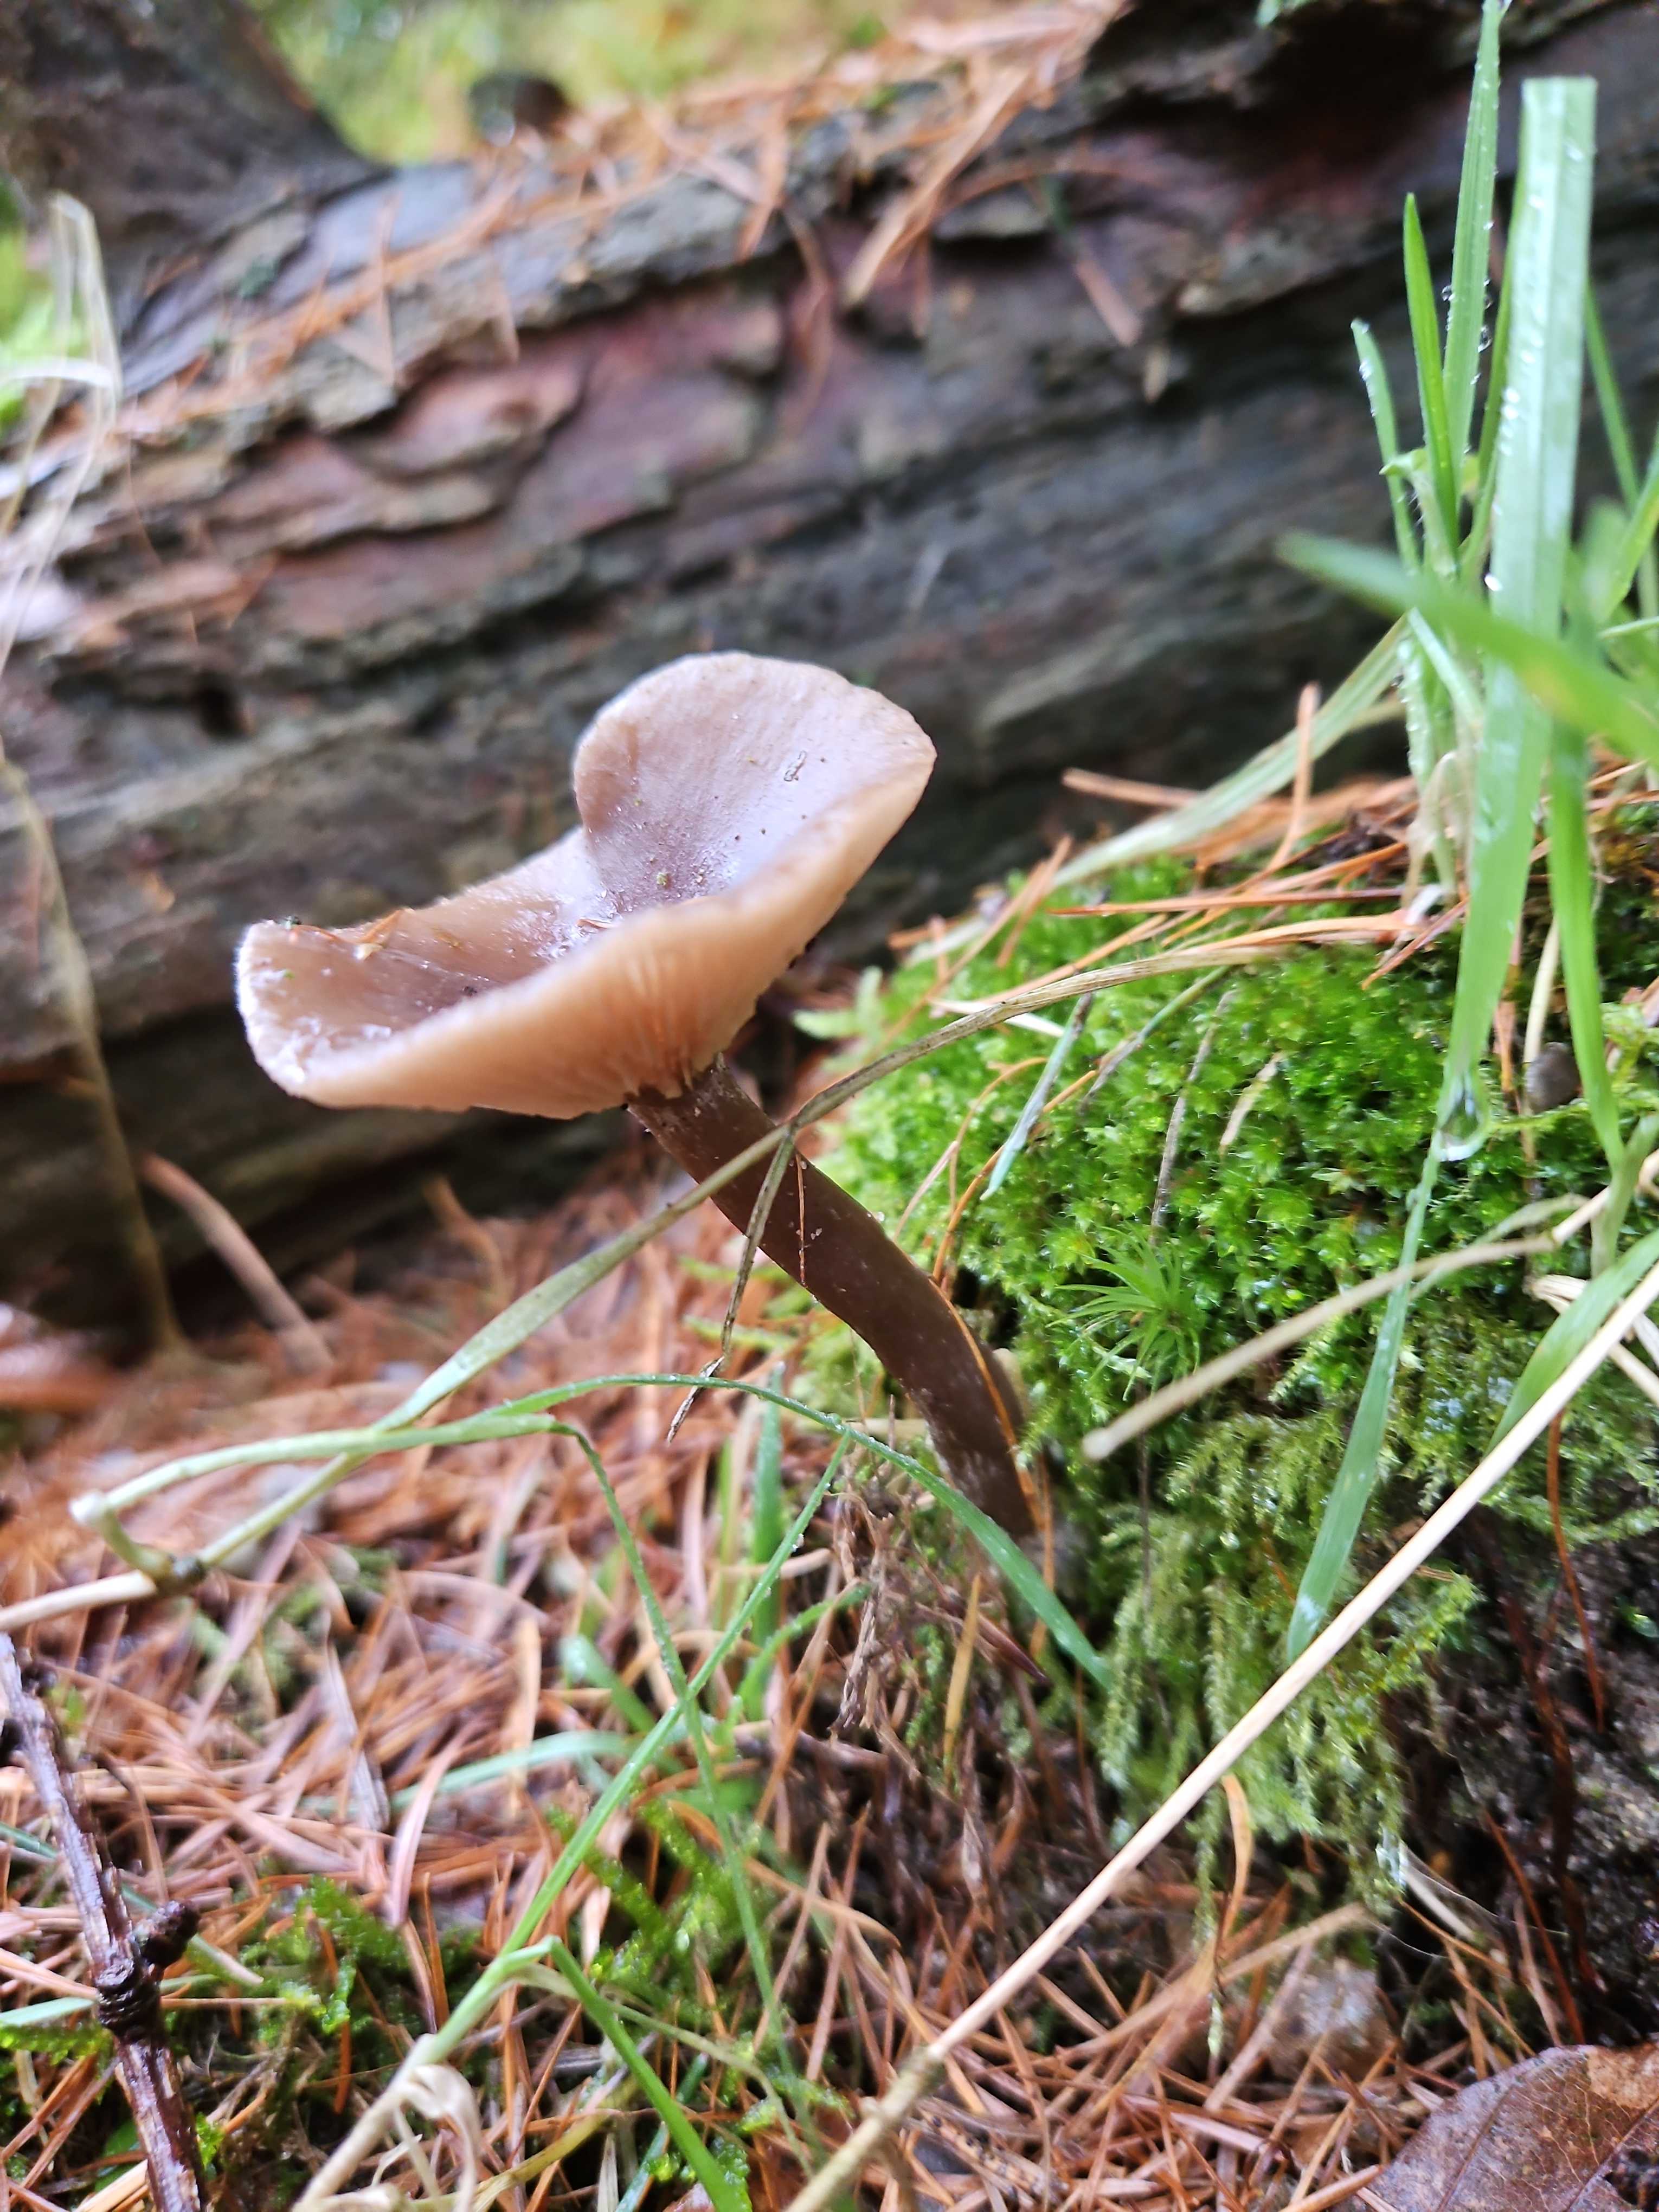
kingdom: Fungi
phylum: Basidiomycota
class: Agaricomycetes
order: Agaricales
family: Pseudoclitocybaceae
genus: Pseudoclitocybe
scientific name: Pseudoclitocybe cyathiformis
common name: almindelig bægertragthat
